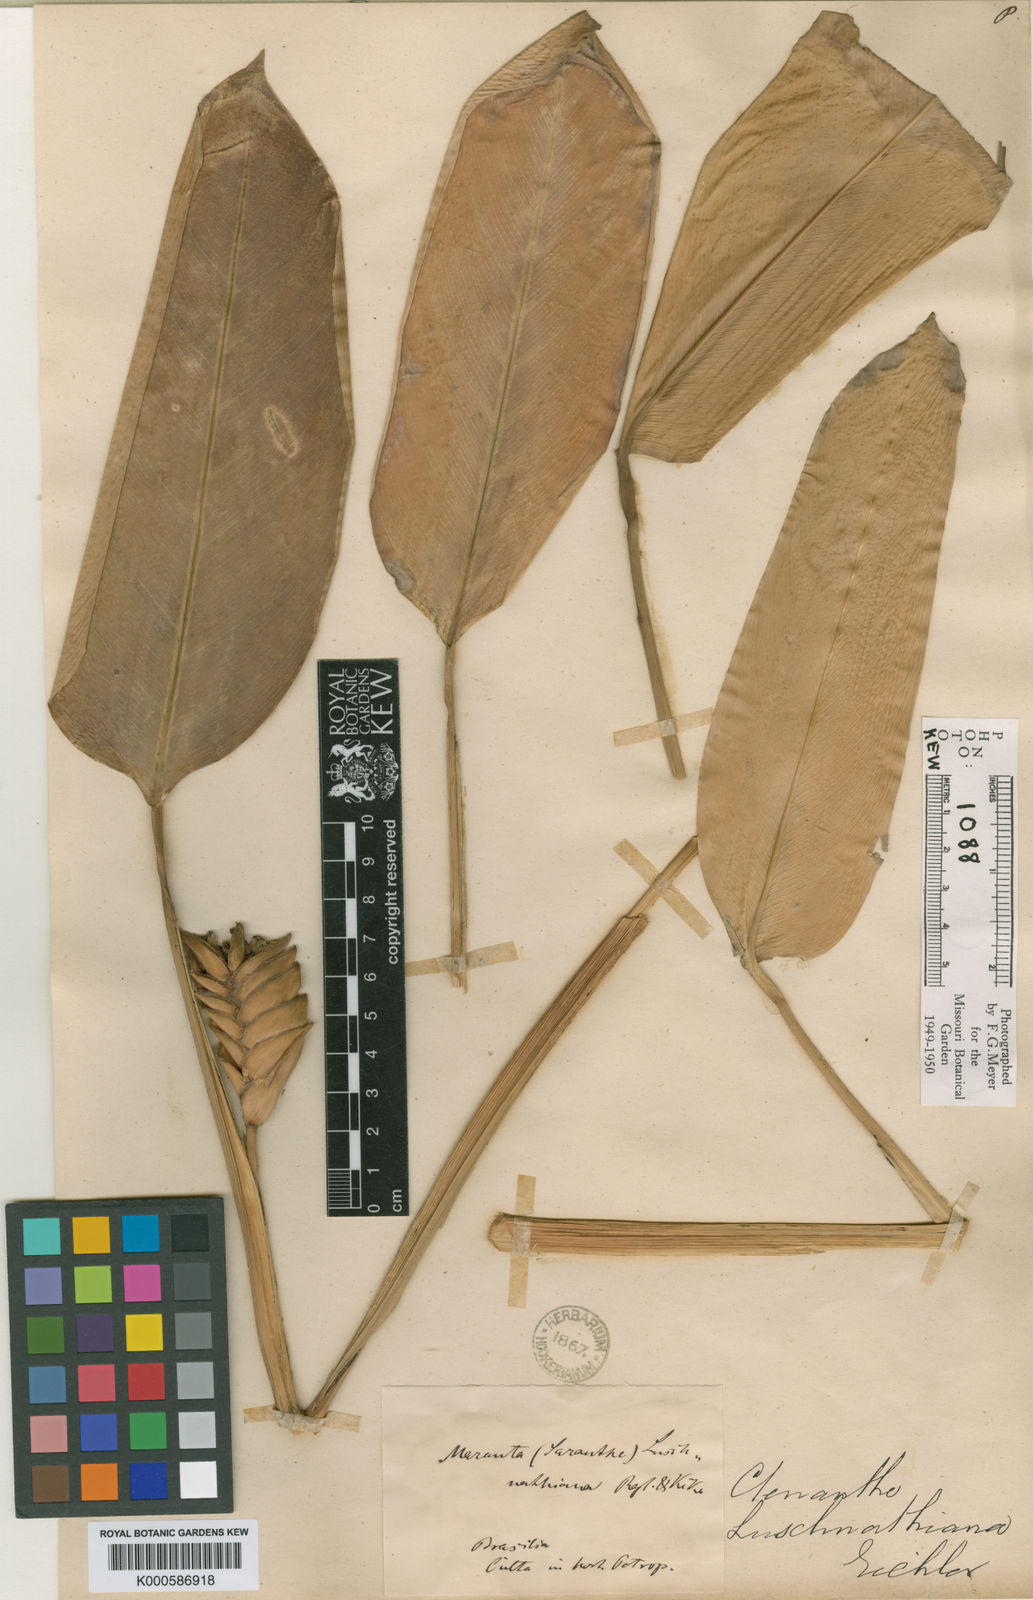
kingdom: Plantae
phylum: Tracheophyta
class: Liliopsida
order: Zingiberales
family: Marantaceae
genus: Ctenanthe
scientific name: Ctenanthe compressa
